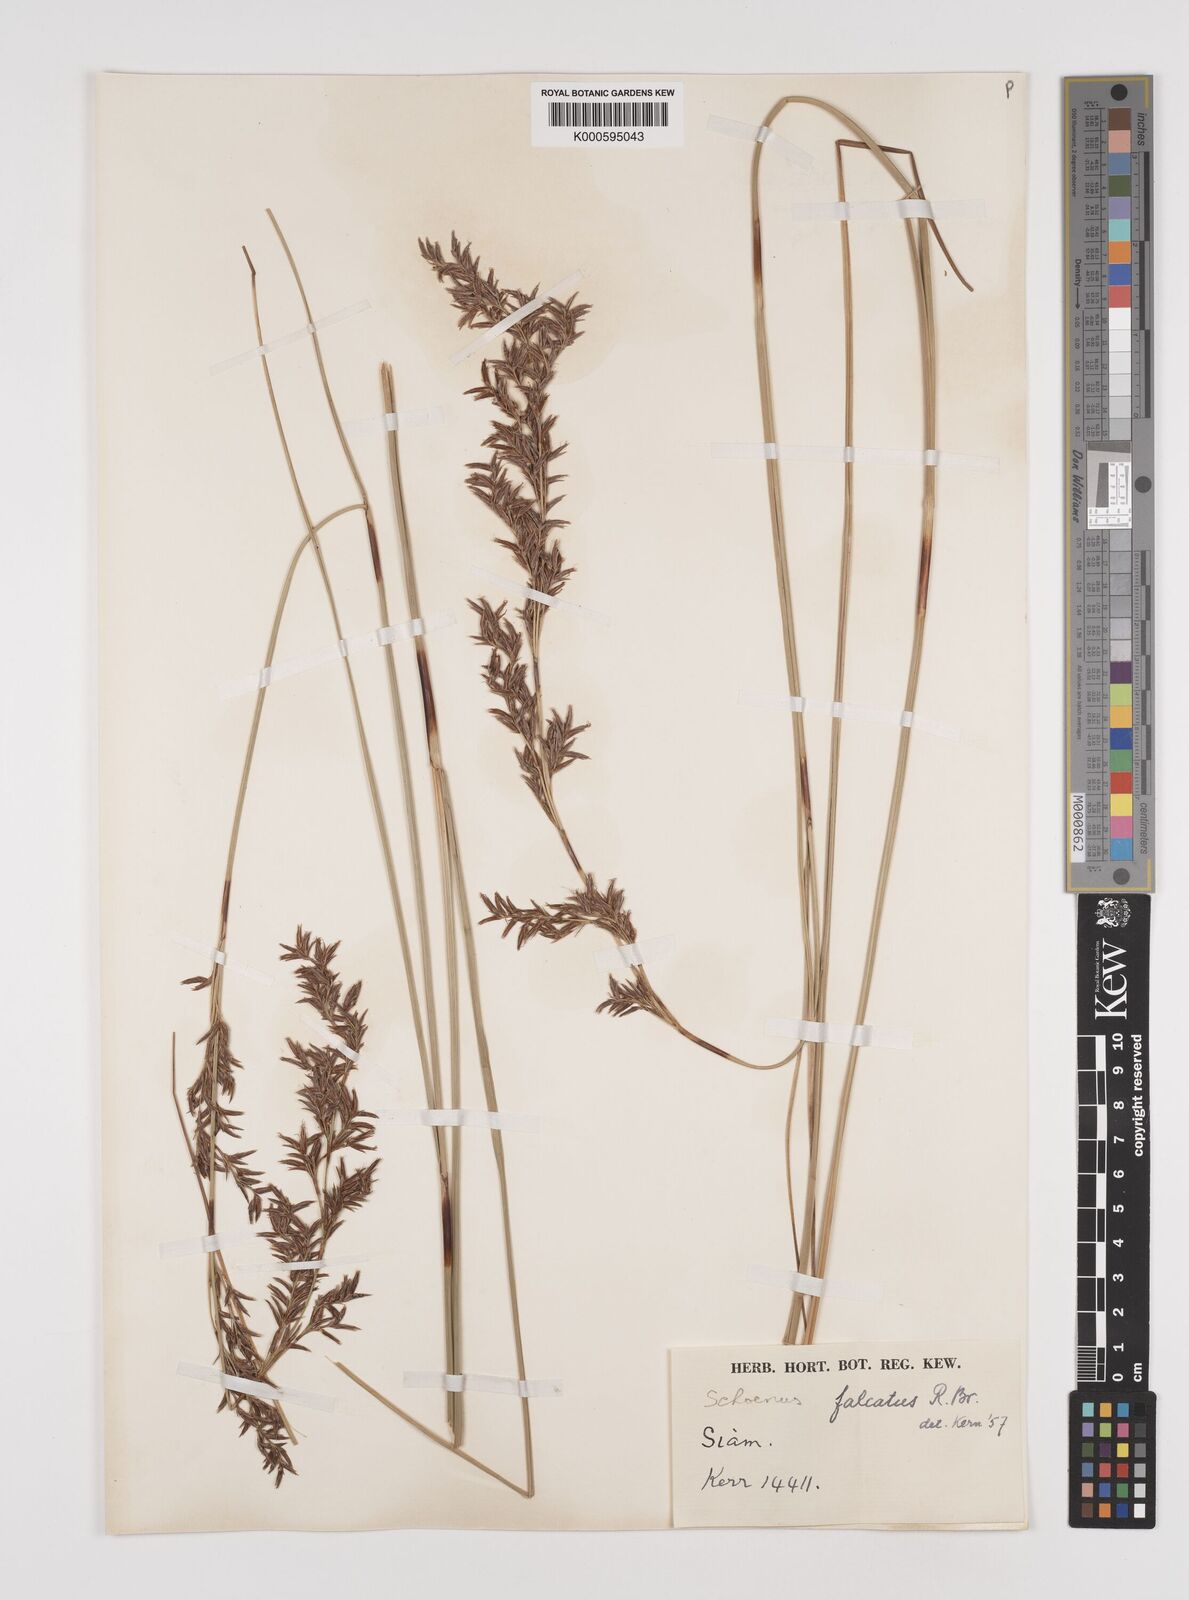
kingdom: Plantae
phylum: Tracheophyta
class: Liliopsida
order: Poales
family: Cyperaceae
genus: Schoenus
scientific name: Schoenus falcatus
